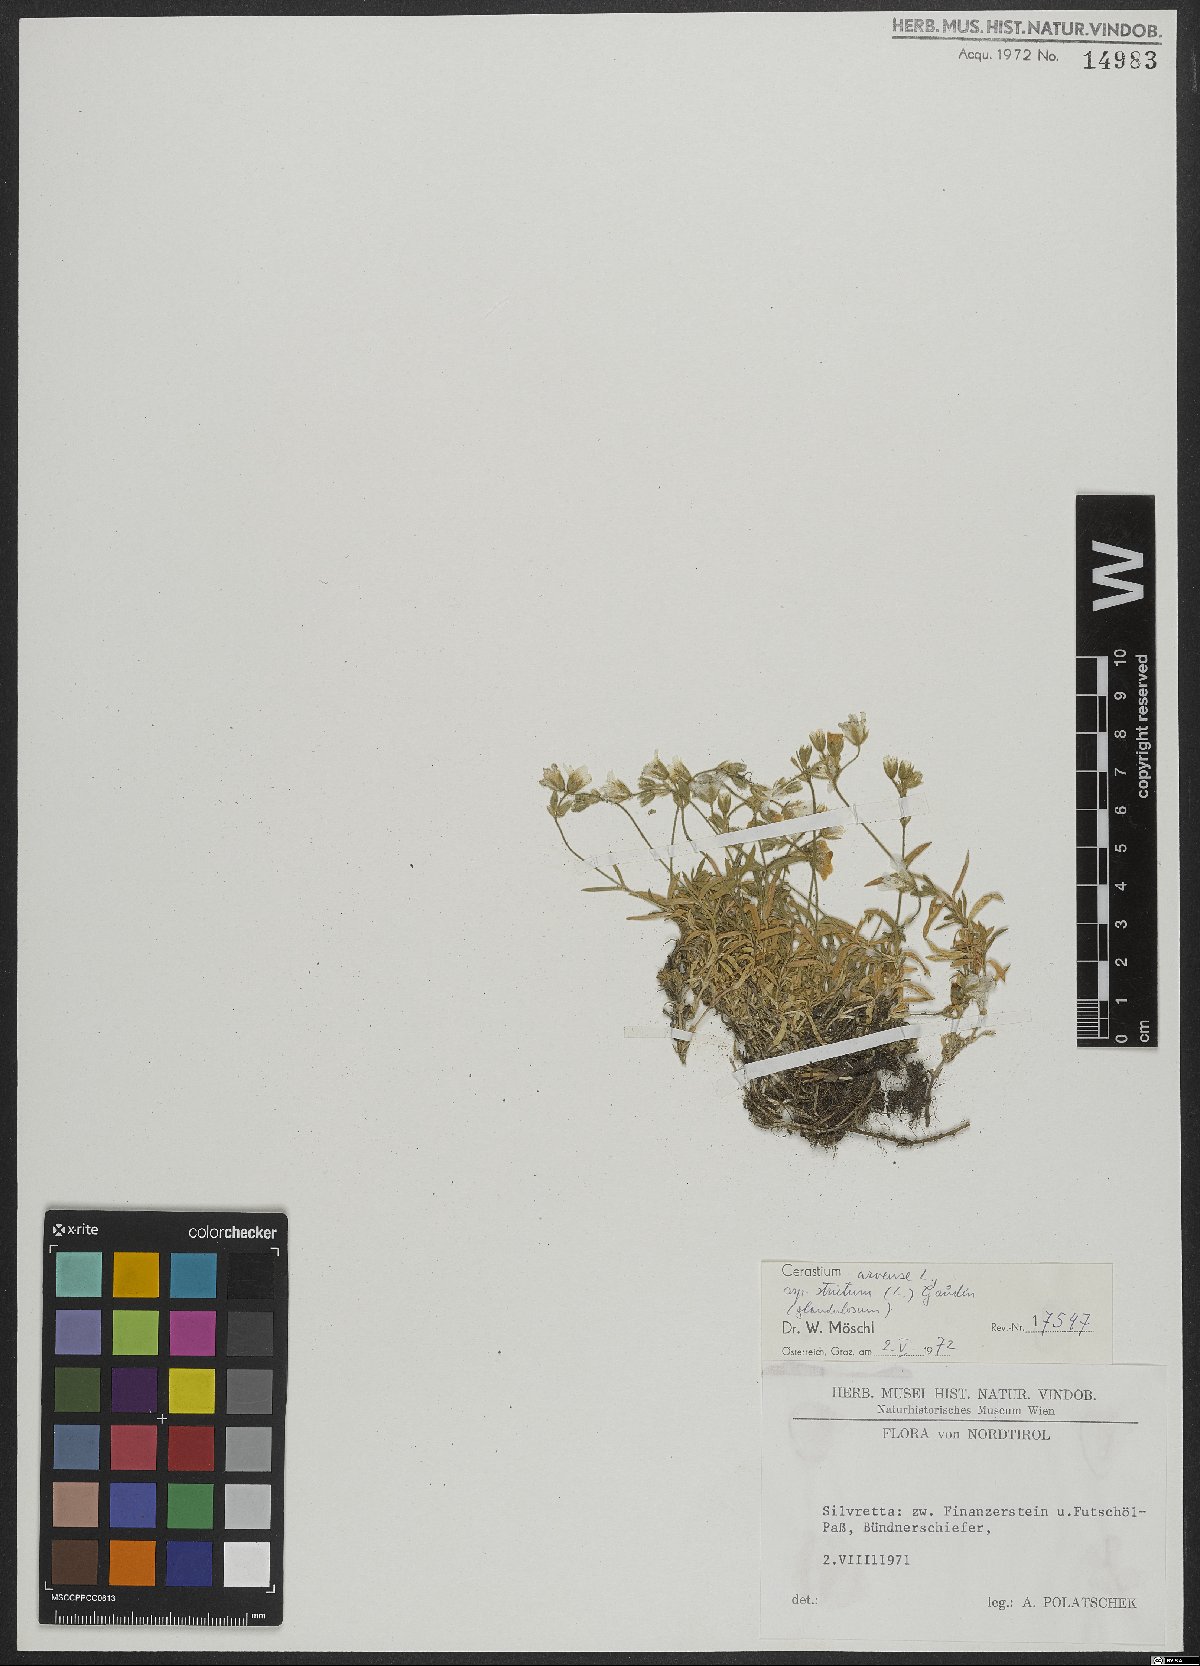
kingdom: Plantae
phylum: Tracheophyta
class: Magnoliopsida
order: Caryophyllales
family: Caryophyllaceae
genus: Cerastium
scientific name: Cerastium elongatum
